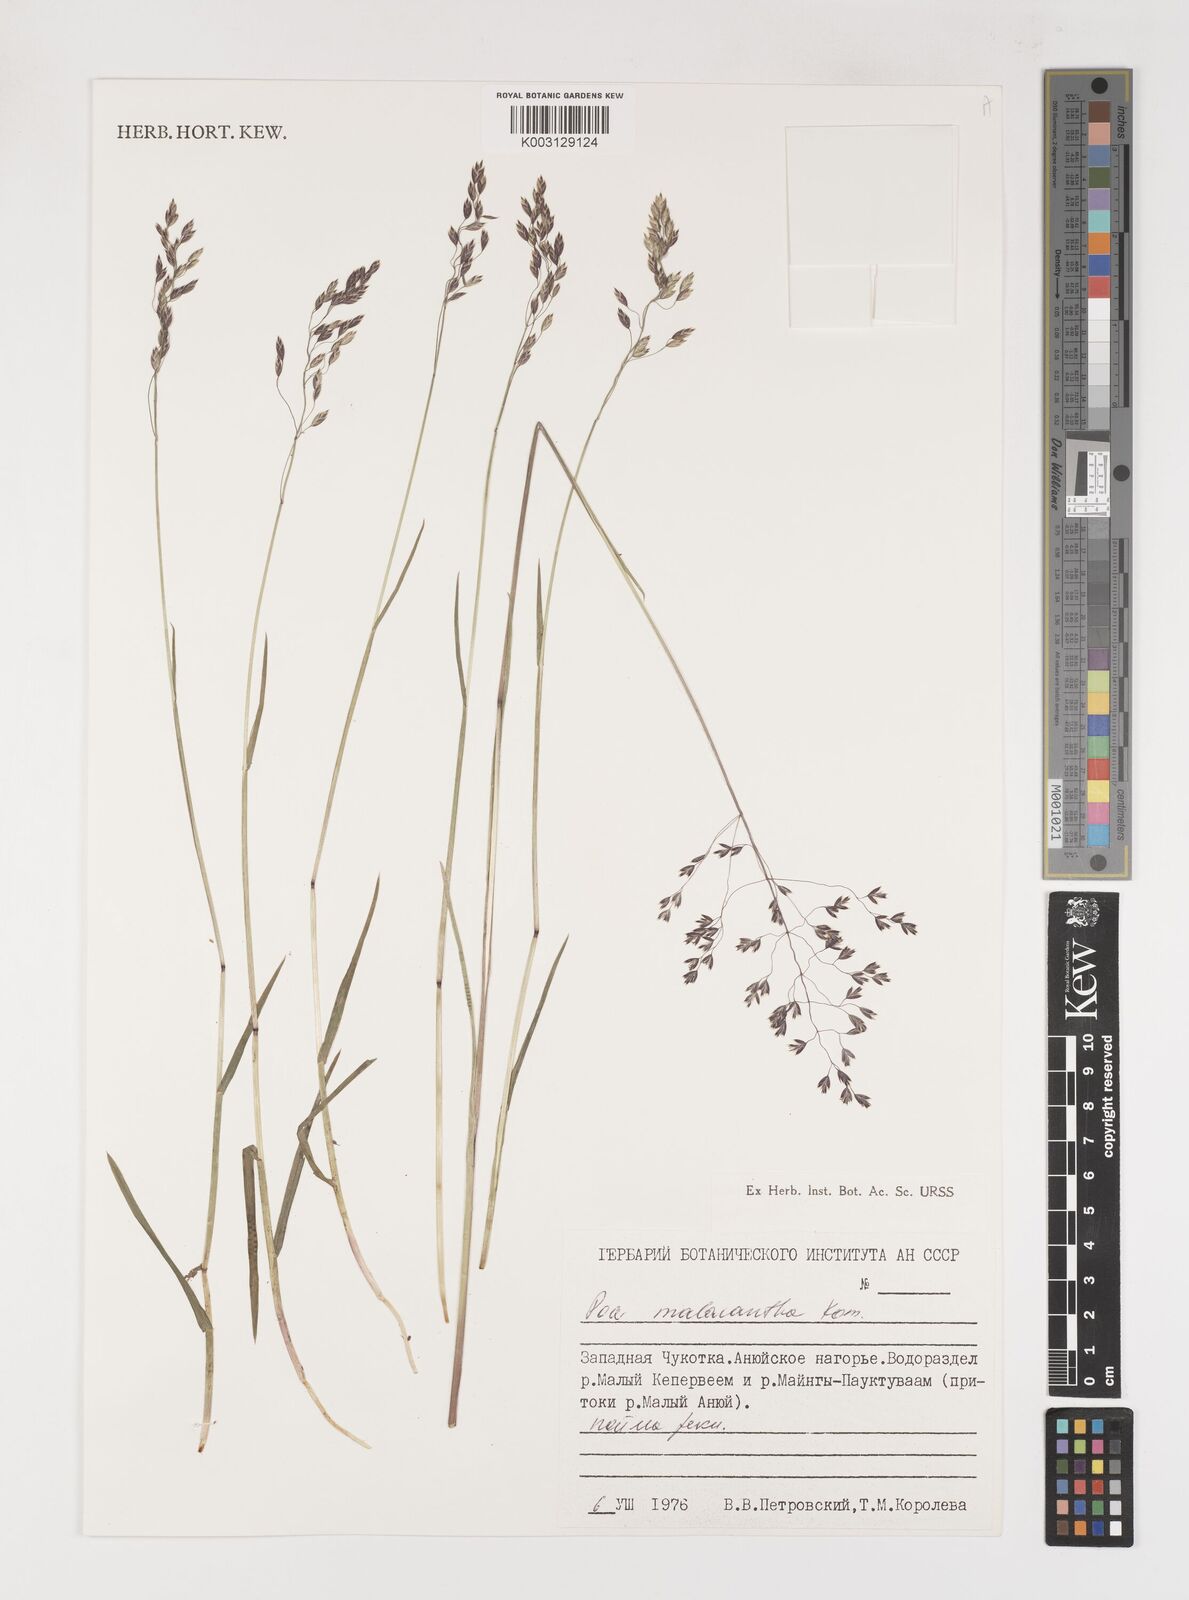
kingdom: Plantae
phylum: Tracheophyta
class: Liliopsida
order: Poales
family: Poaceae
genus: Poa
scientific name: Poa arctica
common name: Arctic bluegrass
